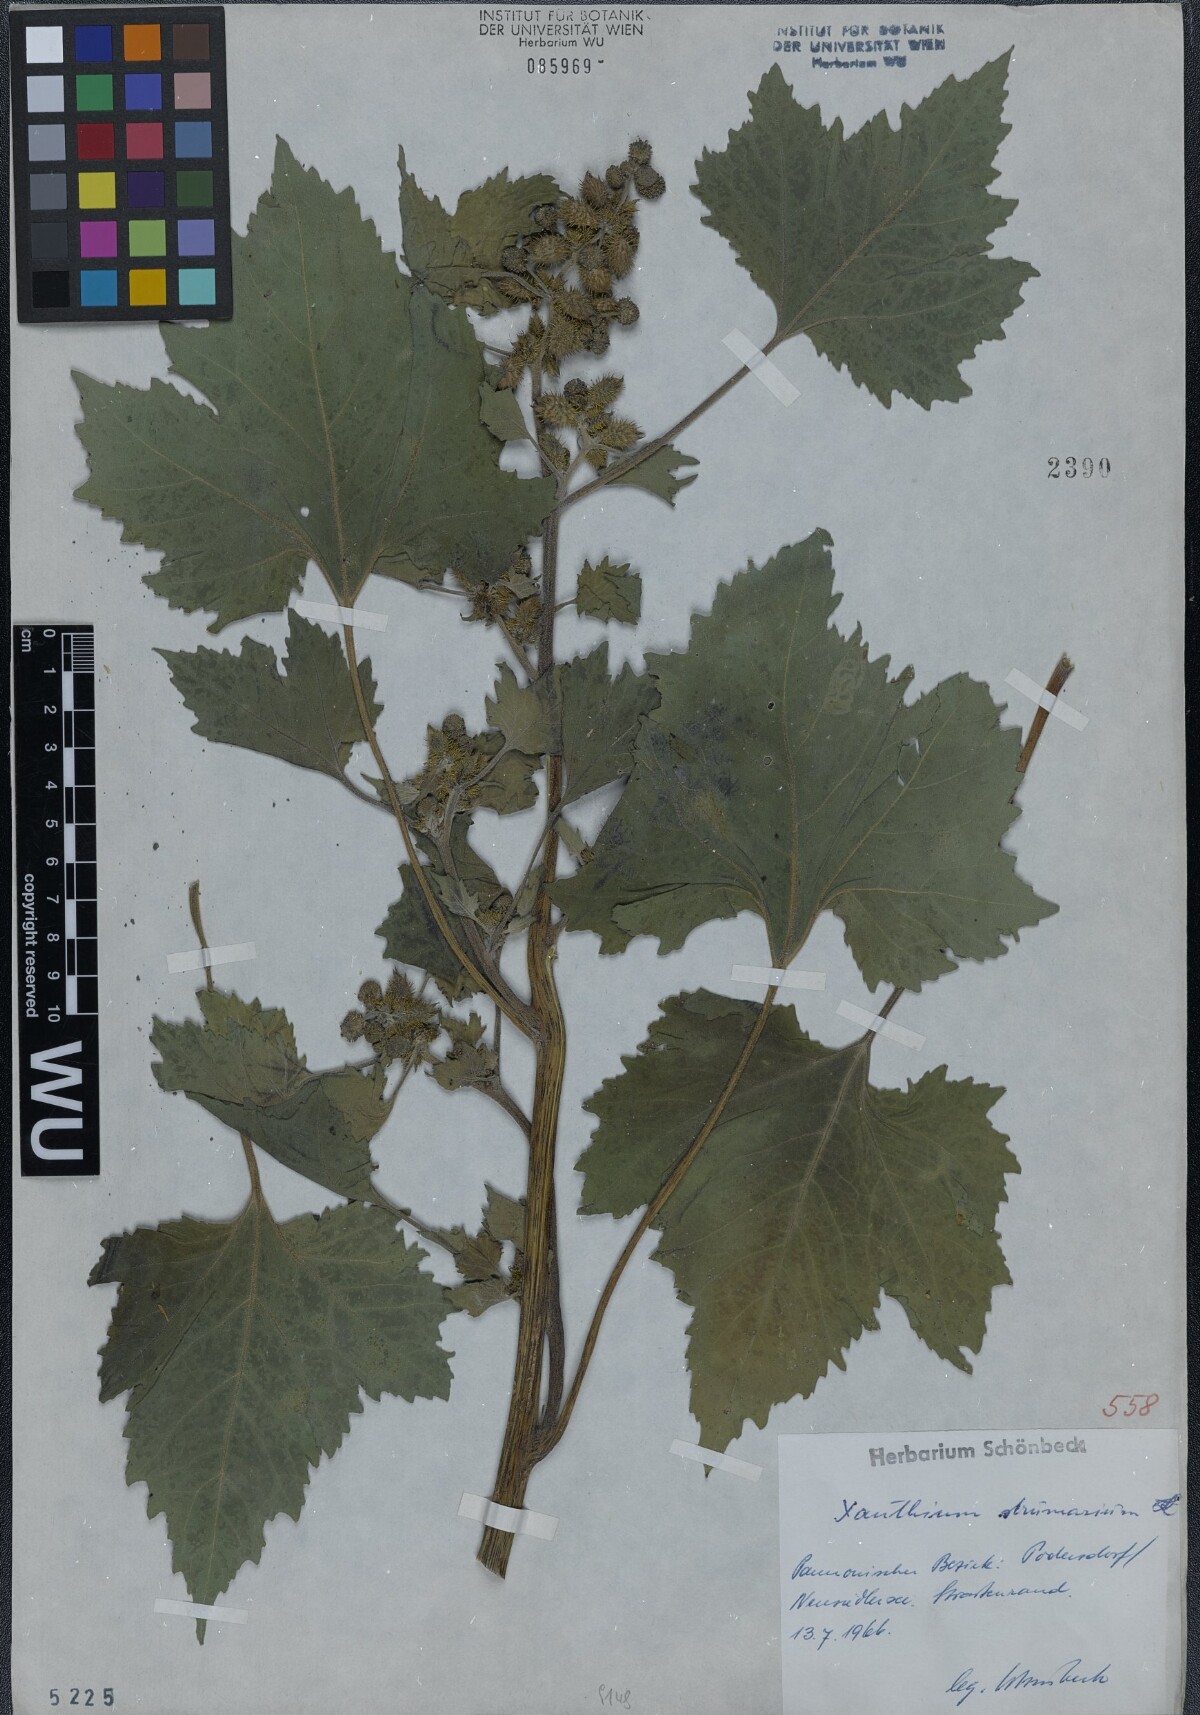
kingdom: Plantae
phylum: Tracheophyta
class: Magnoliopsida
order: Asterales
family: Asteraceae
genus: Xanthium
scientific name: Xanthium strumarium
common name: Rough cocklebur
